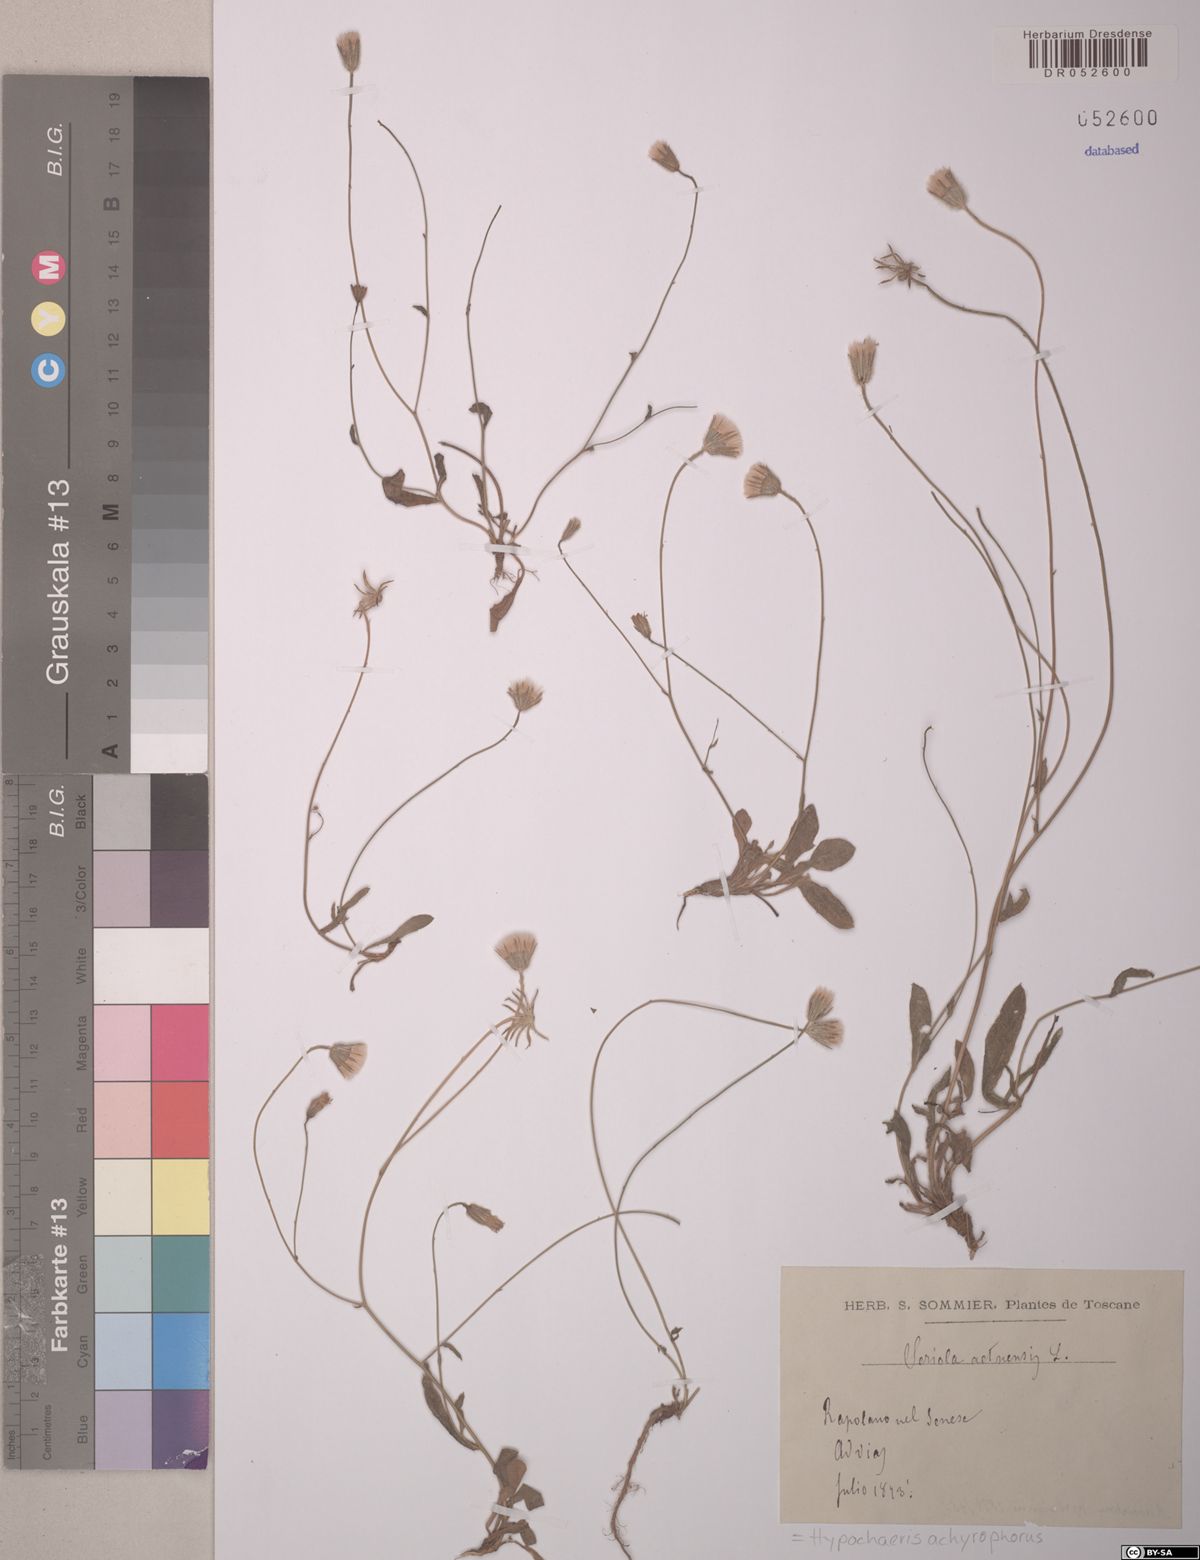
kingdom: Plantae
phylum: Tracheophyta
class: Magnoliopsida
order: Asterales
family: Asteraceae
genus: Achyrophorus
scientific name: Achyrophorus valdesii
